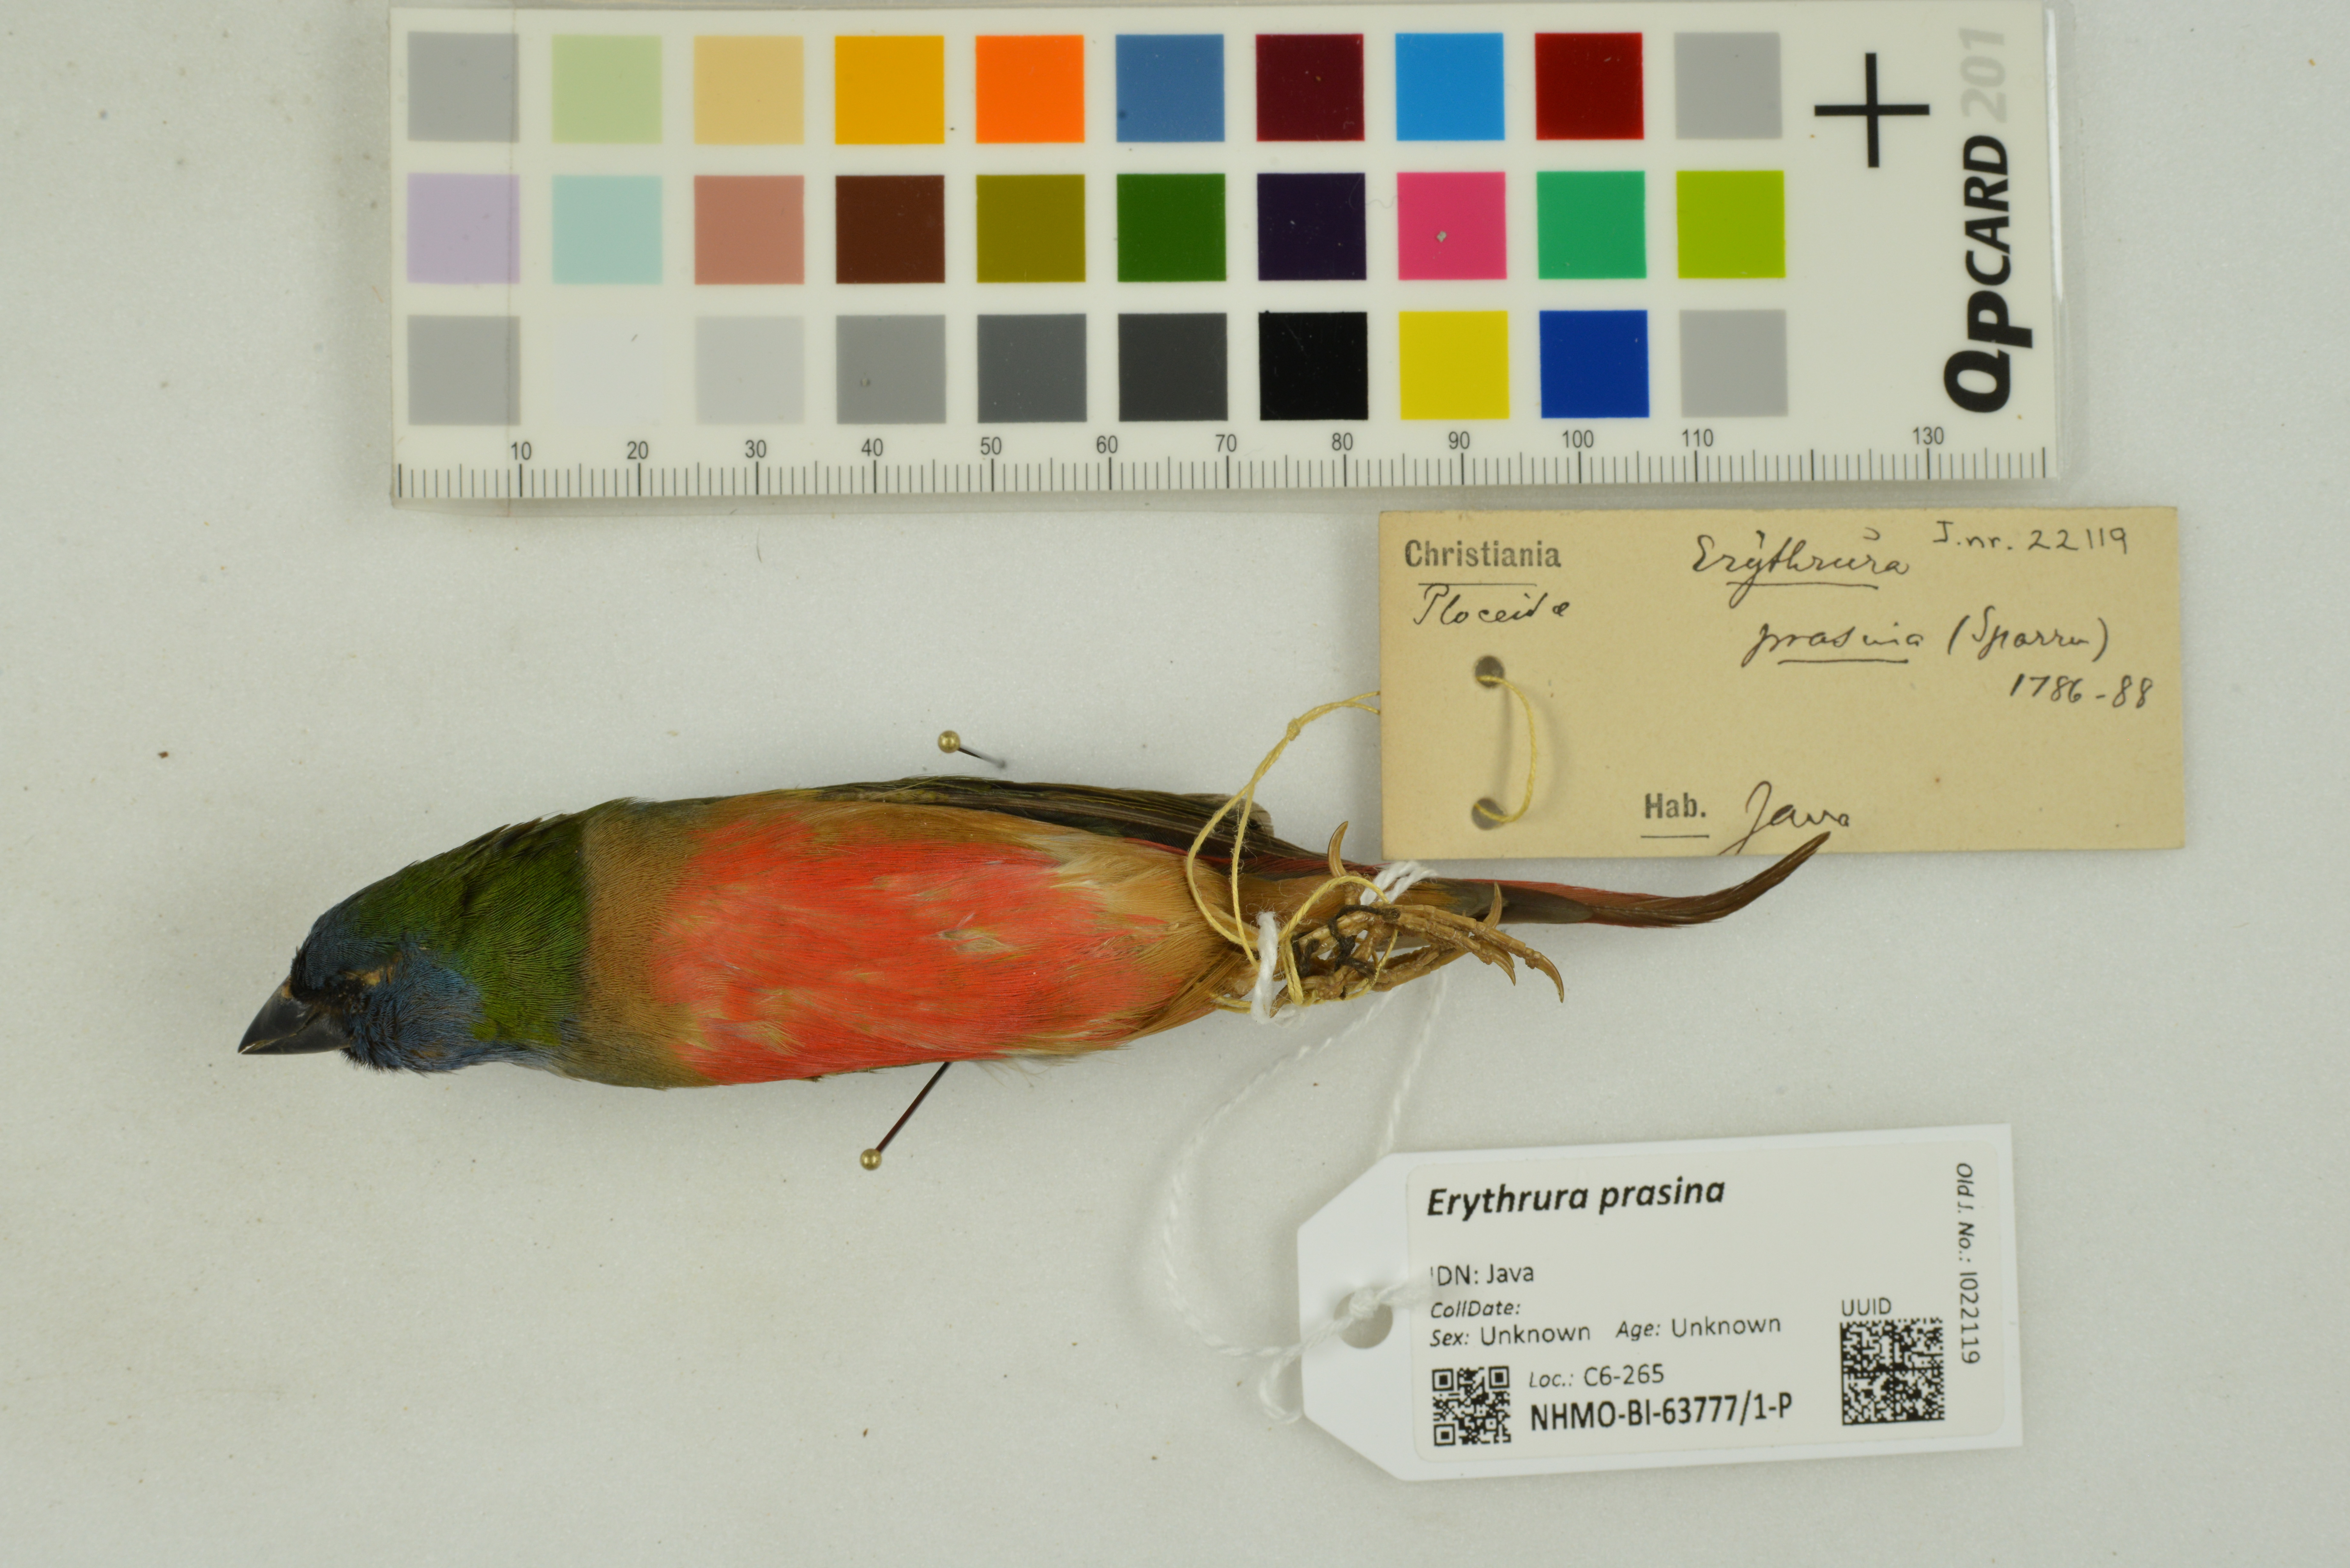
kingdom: Animalia
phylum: Chordata
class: Aves
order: Passeriformes
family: Estrildidae
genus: Erythrura
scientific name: Erythrura prasina
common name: Pin-tailed parrotfinch
